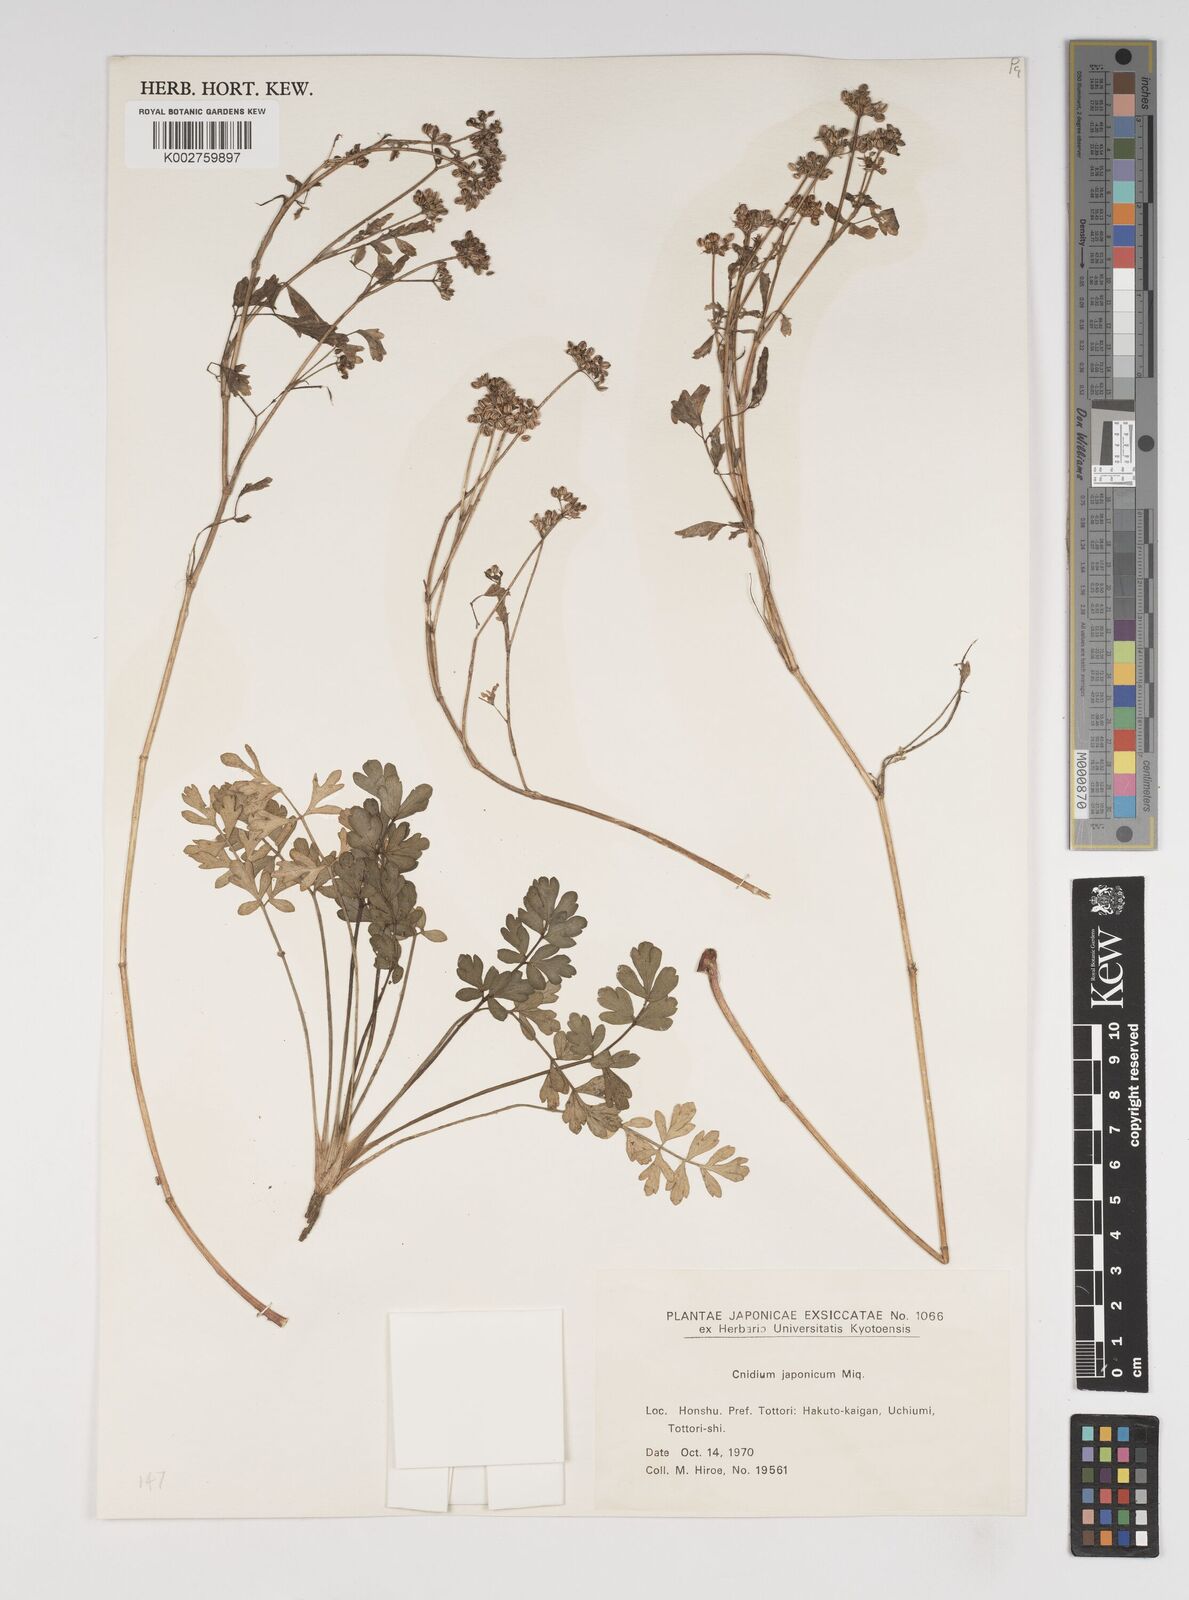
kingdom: Plantae
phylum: Tracheophyta
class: Magnoliopsida
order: Apiales
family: Apiaceae
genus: Cnidium
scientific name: Cnidium japonicum
